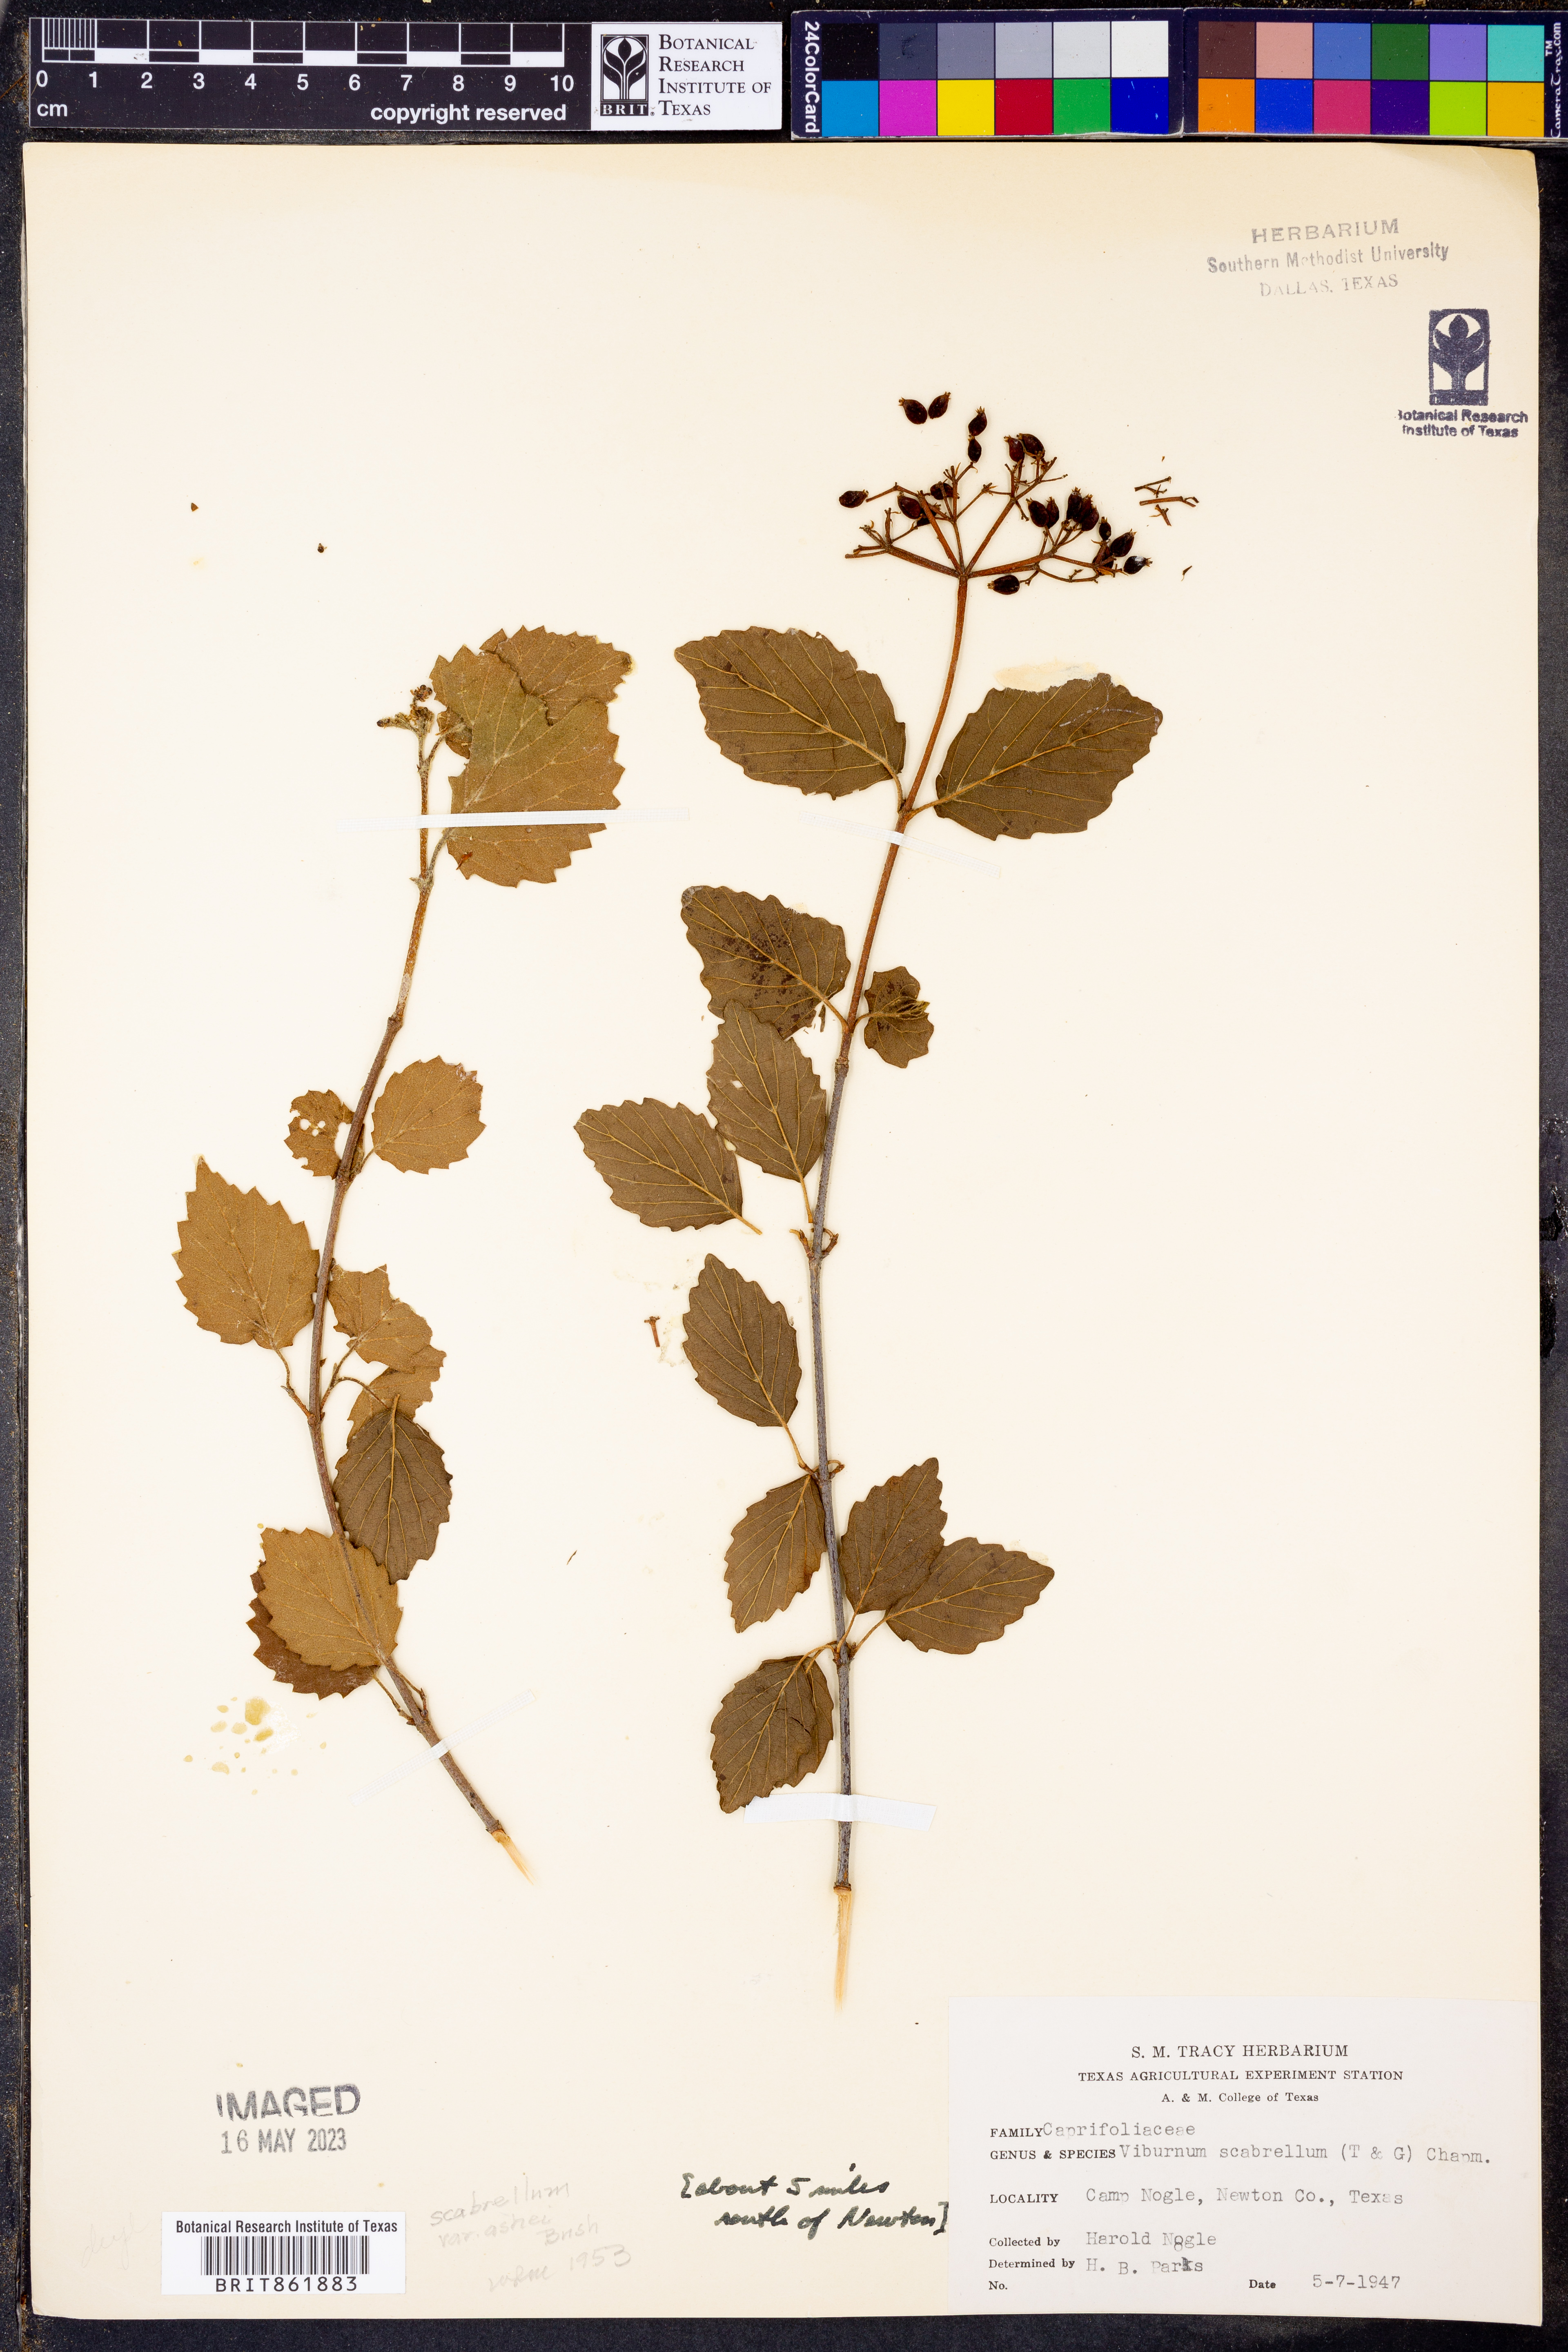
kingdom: Plantae
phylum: Tracheophyta
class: Magnoliopsida
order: Dipsacales
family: Viburnaceae
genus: Viburnum
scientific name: Viburnum scabrellum
